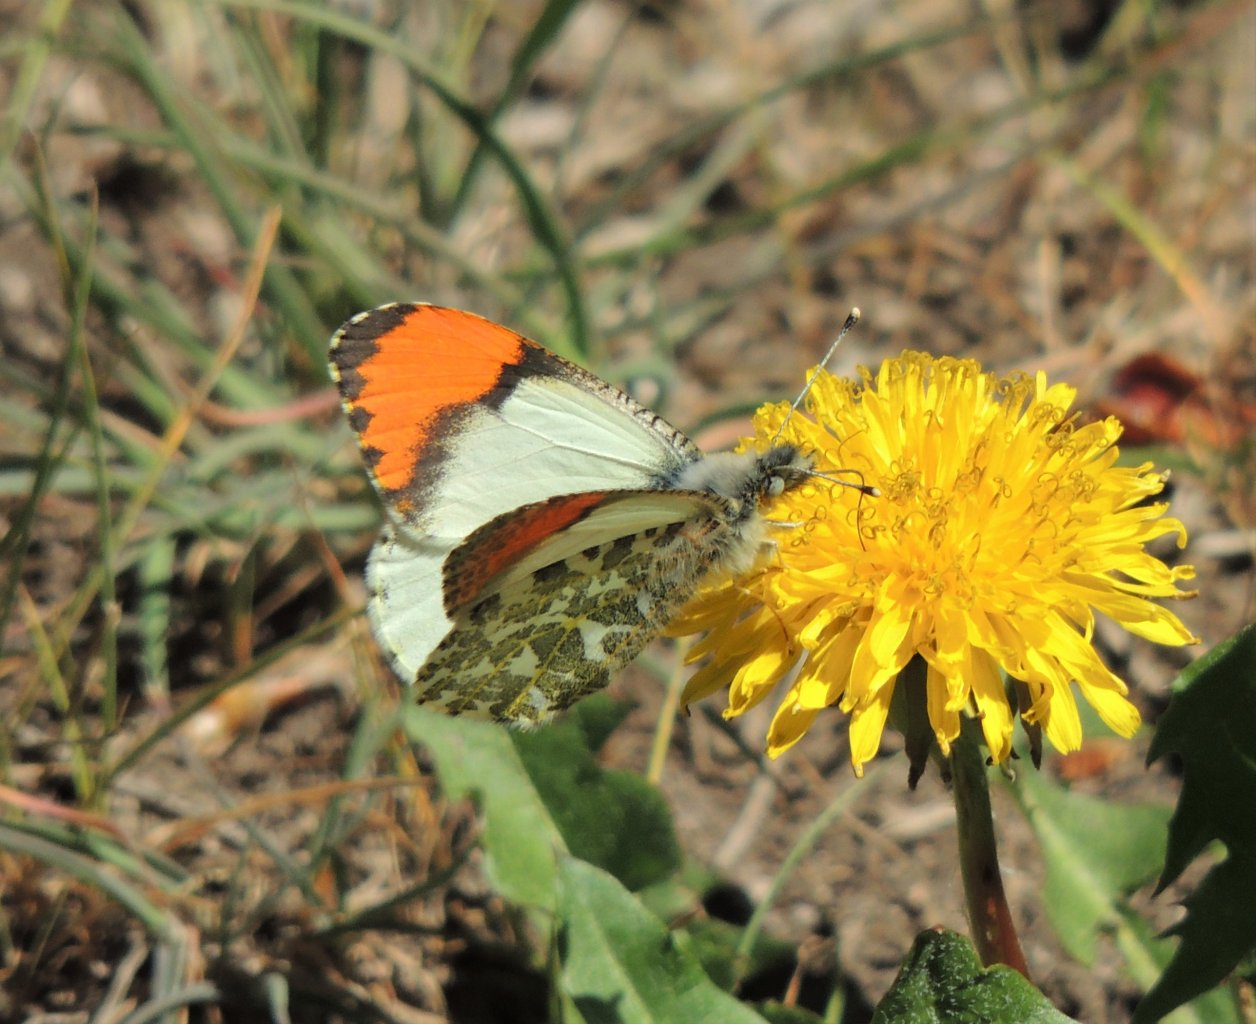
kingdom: Animalia
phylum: Arthropoda
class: Insecta
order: Lepidoptera
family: Pieridae
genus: Anthocharis
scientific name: Anthocharis sara
